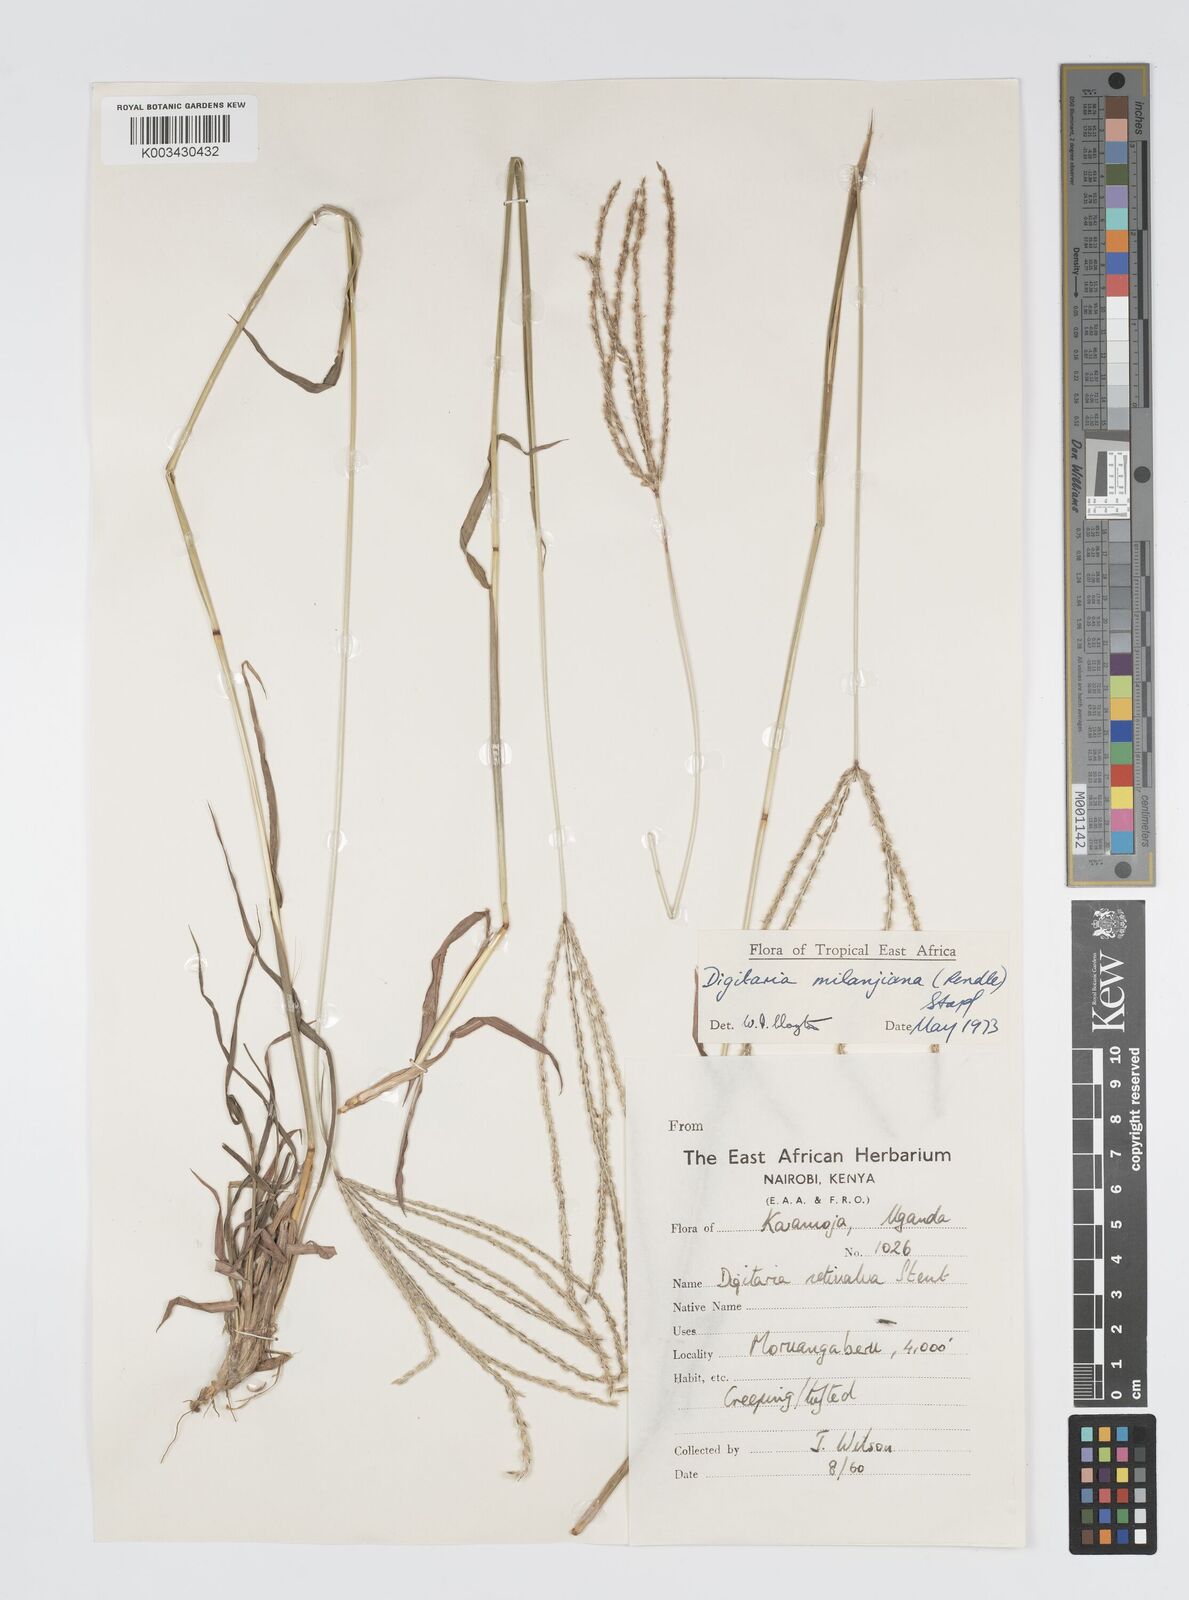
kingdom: Plantae
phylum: Tracheophyta
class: Liliopsida
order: Poales
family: Poaceae
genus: Digitaria
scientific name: Digitaria milanjiana
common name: Madagascar crabgrass
